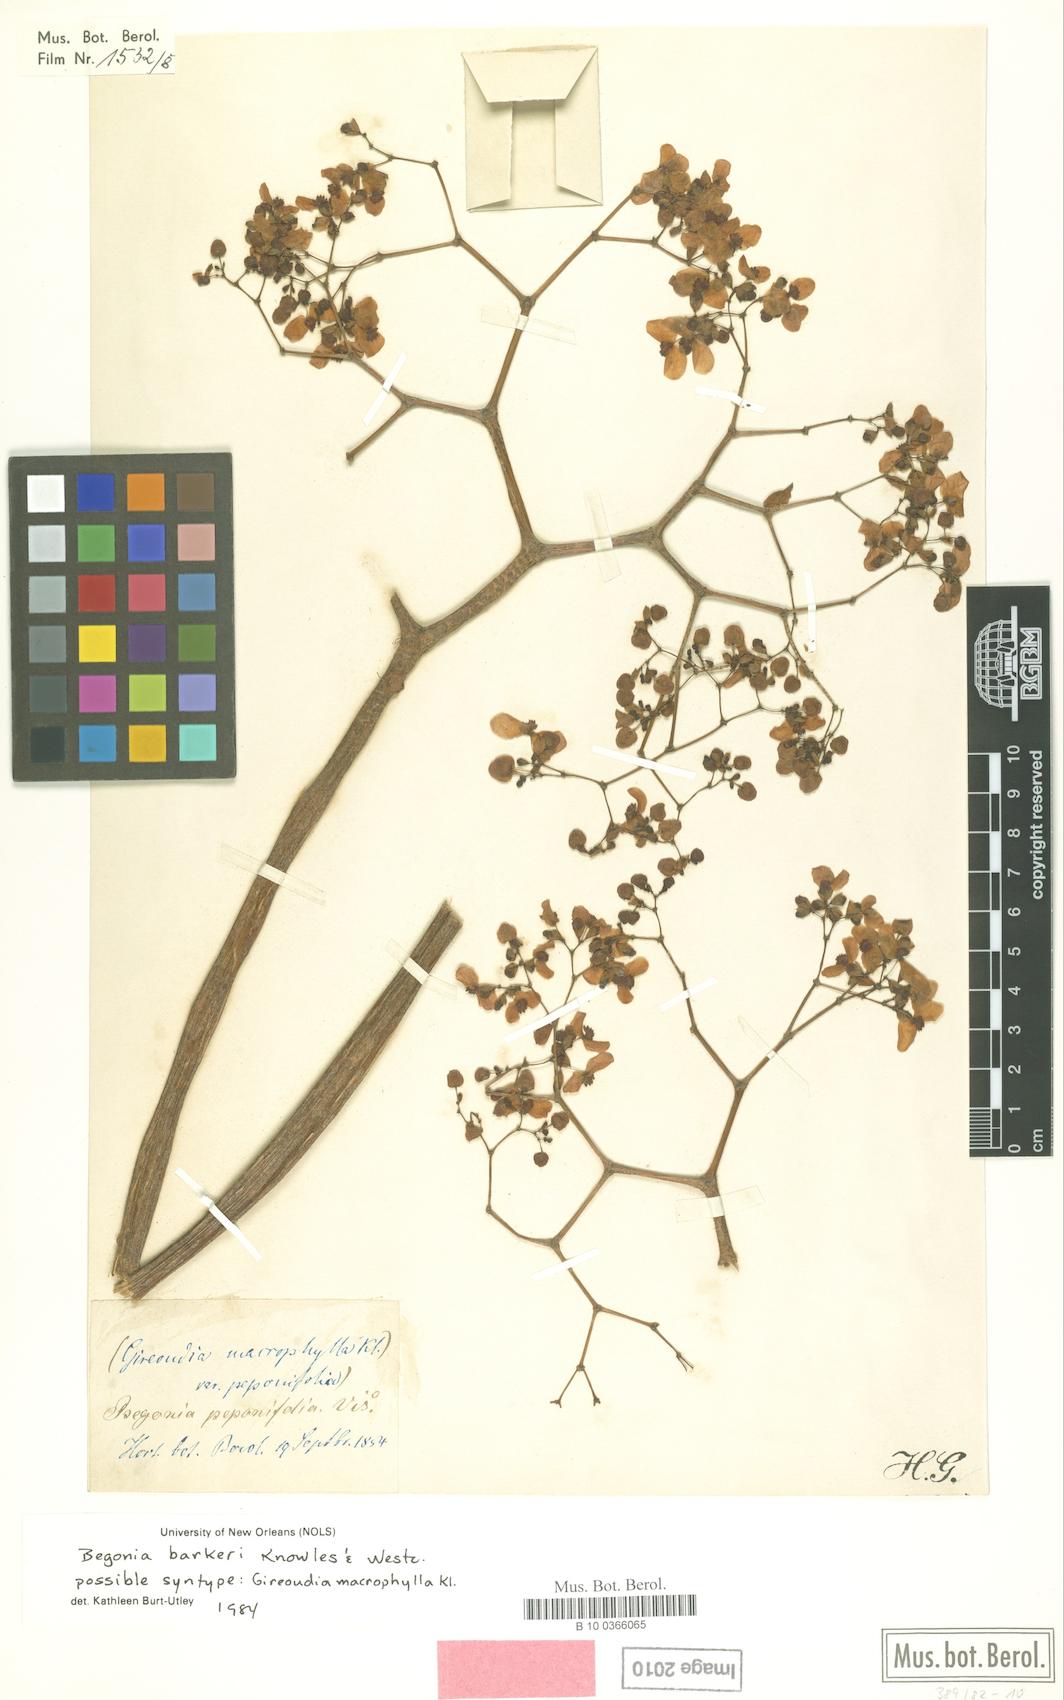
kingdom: Plantae
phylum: Tracheophyta
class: Magnoliopsida
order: Cucurbitales
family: Begoniaceae
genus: Begonia
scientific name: Begonia barkeri
